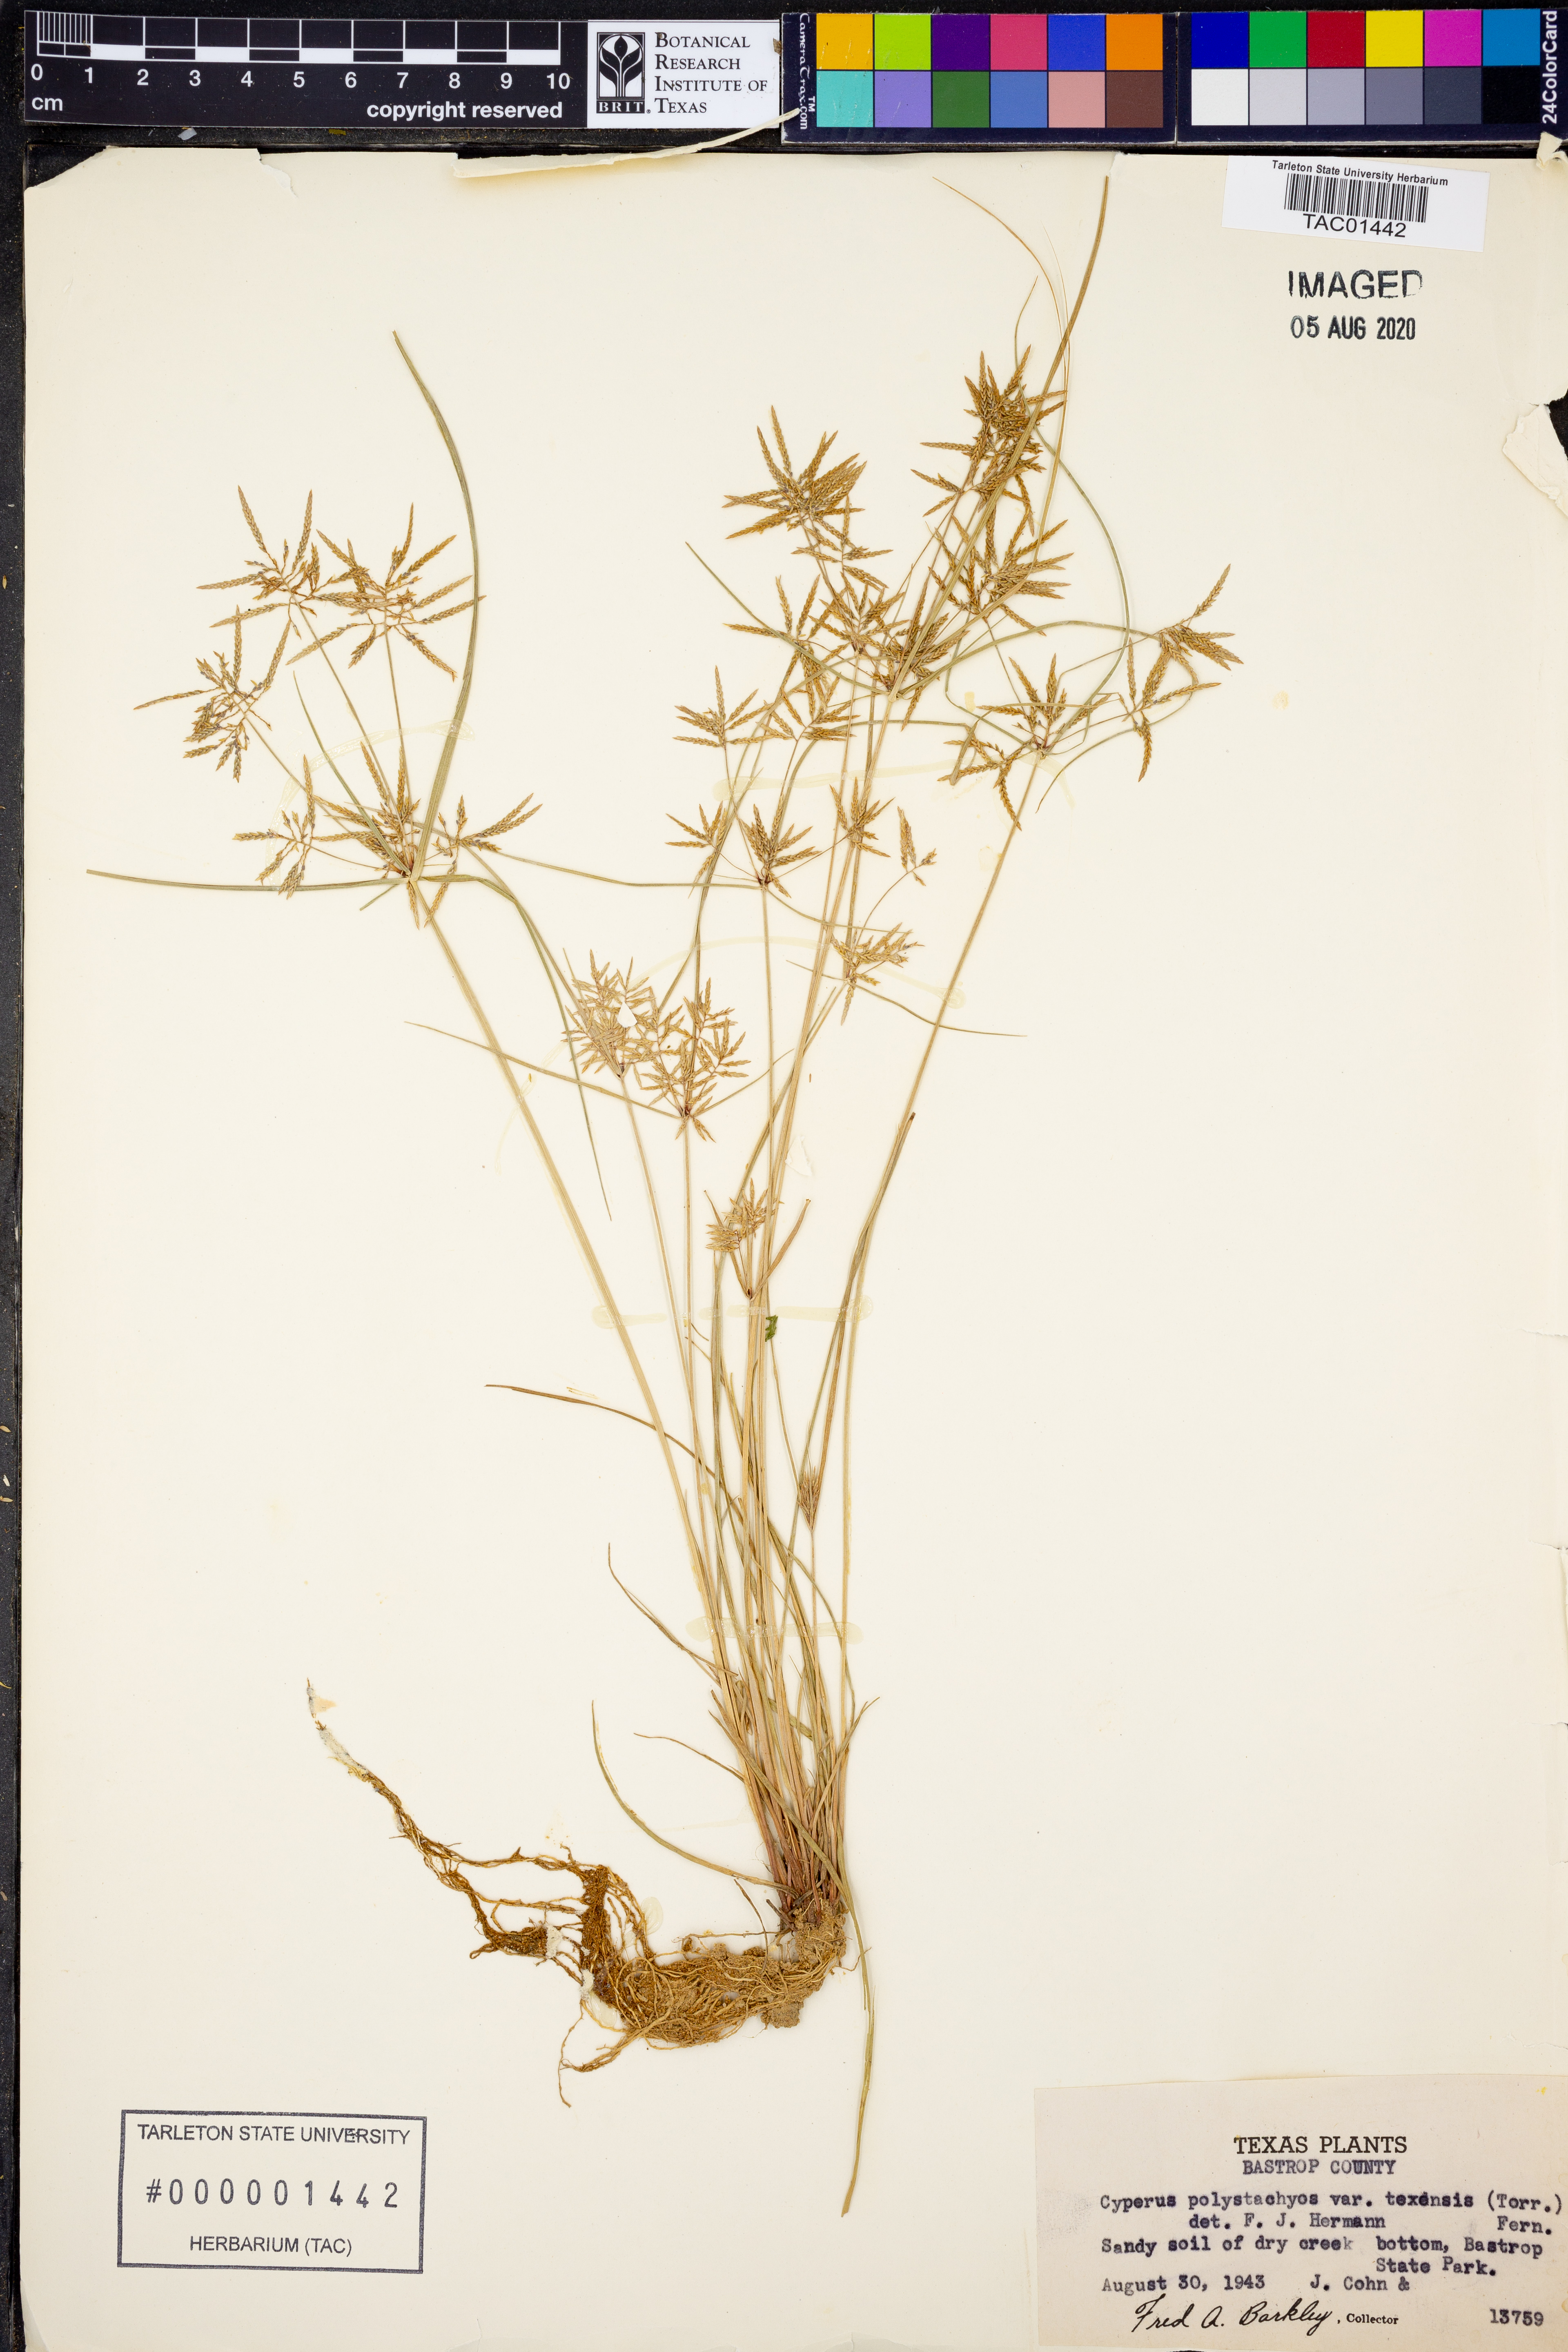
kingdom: Plantae
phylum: Tracheophyta
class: Liliopsida
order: Poales
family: Cyperaceae
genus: Cyperus
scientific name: Cyperus polystachyos
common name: Bunchy flat sedge
